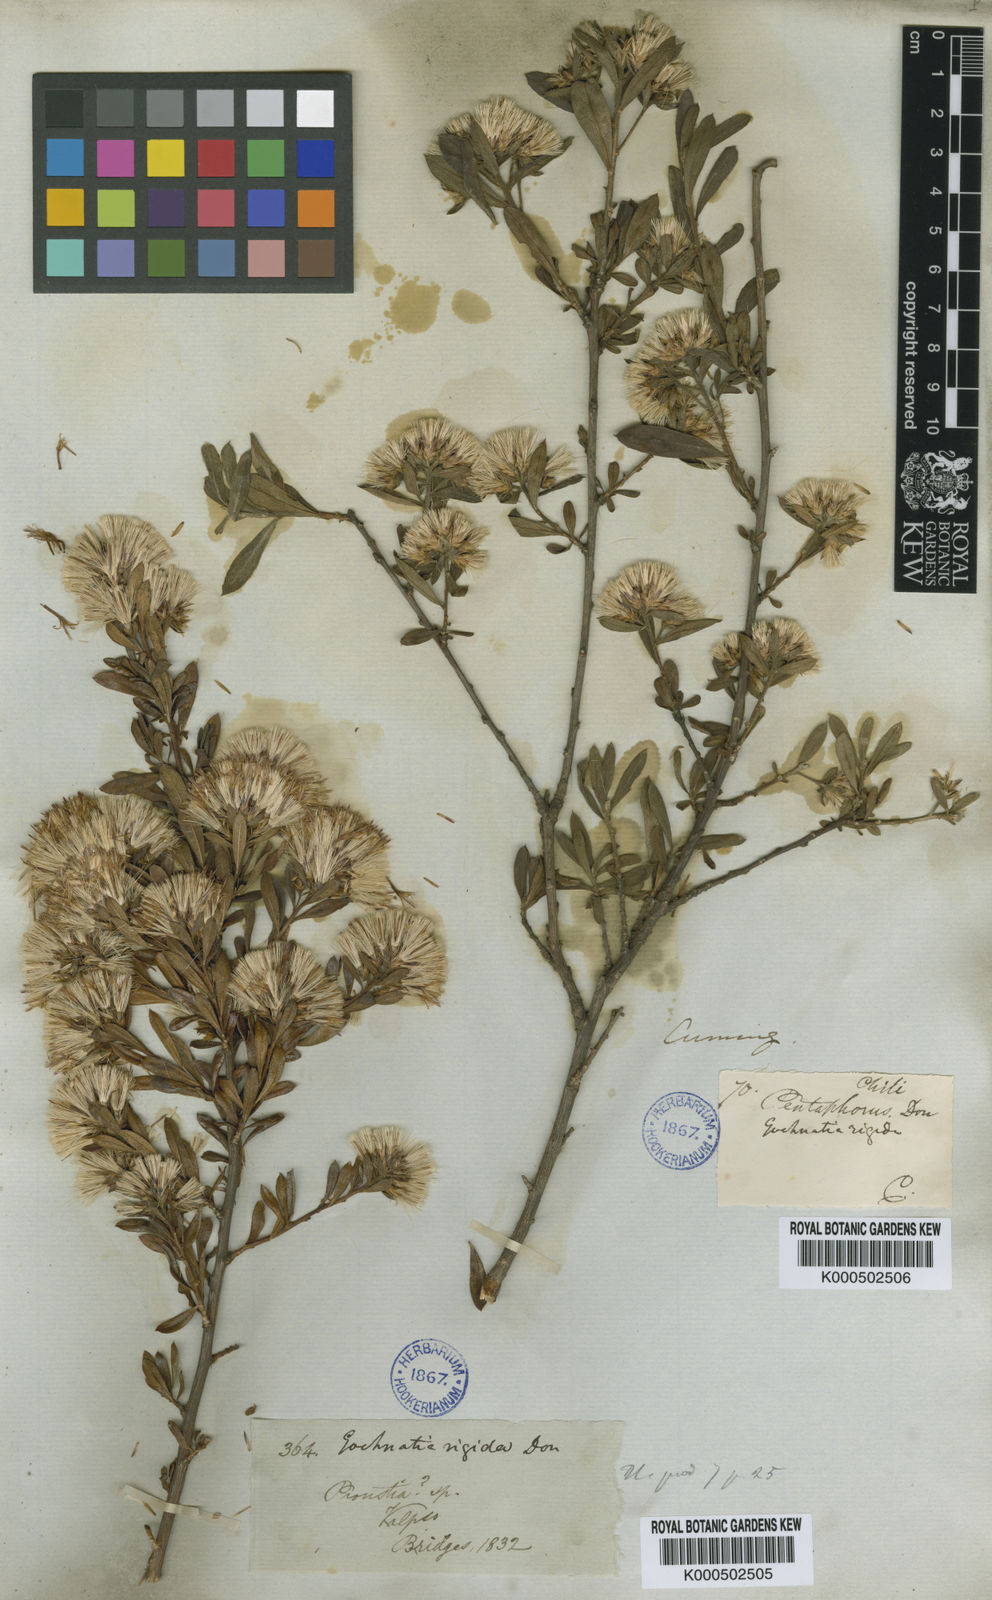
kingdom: Plantae
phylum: Tracheophyta
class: Magnoliopsida
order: Asterales
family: Asteraceae
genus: Gochnatia
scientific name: Gochnatia foliolosa
